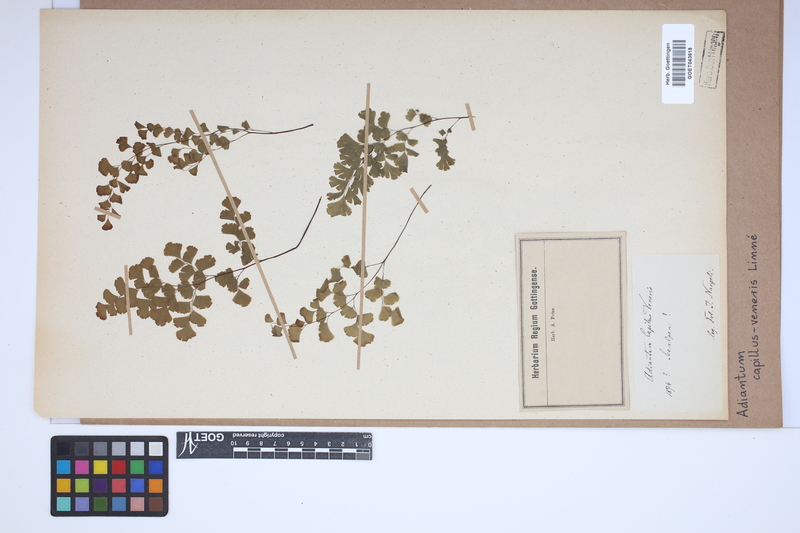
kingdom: Plantae
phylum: Tracheophyta
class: Polypodiopsida
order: Polypodiales
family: Pteridaceae
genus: Adiantum
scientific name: Adiantum capillus-veneris
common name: Maidenhair fern
